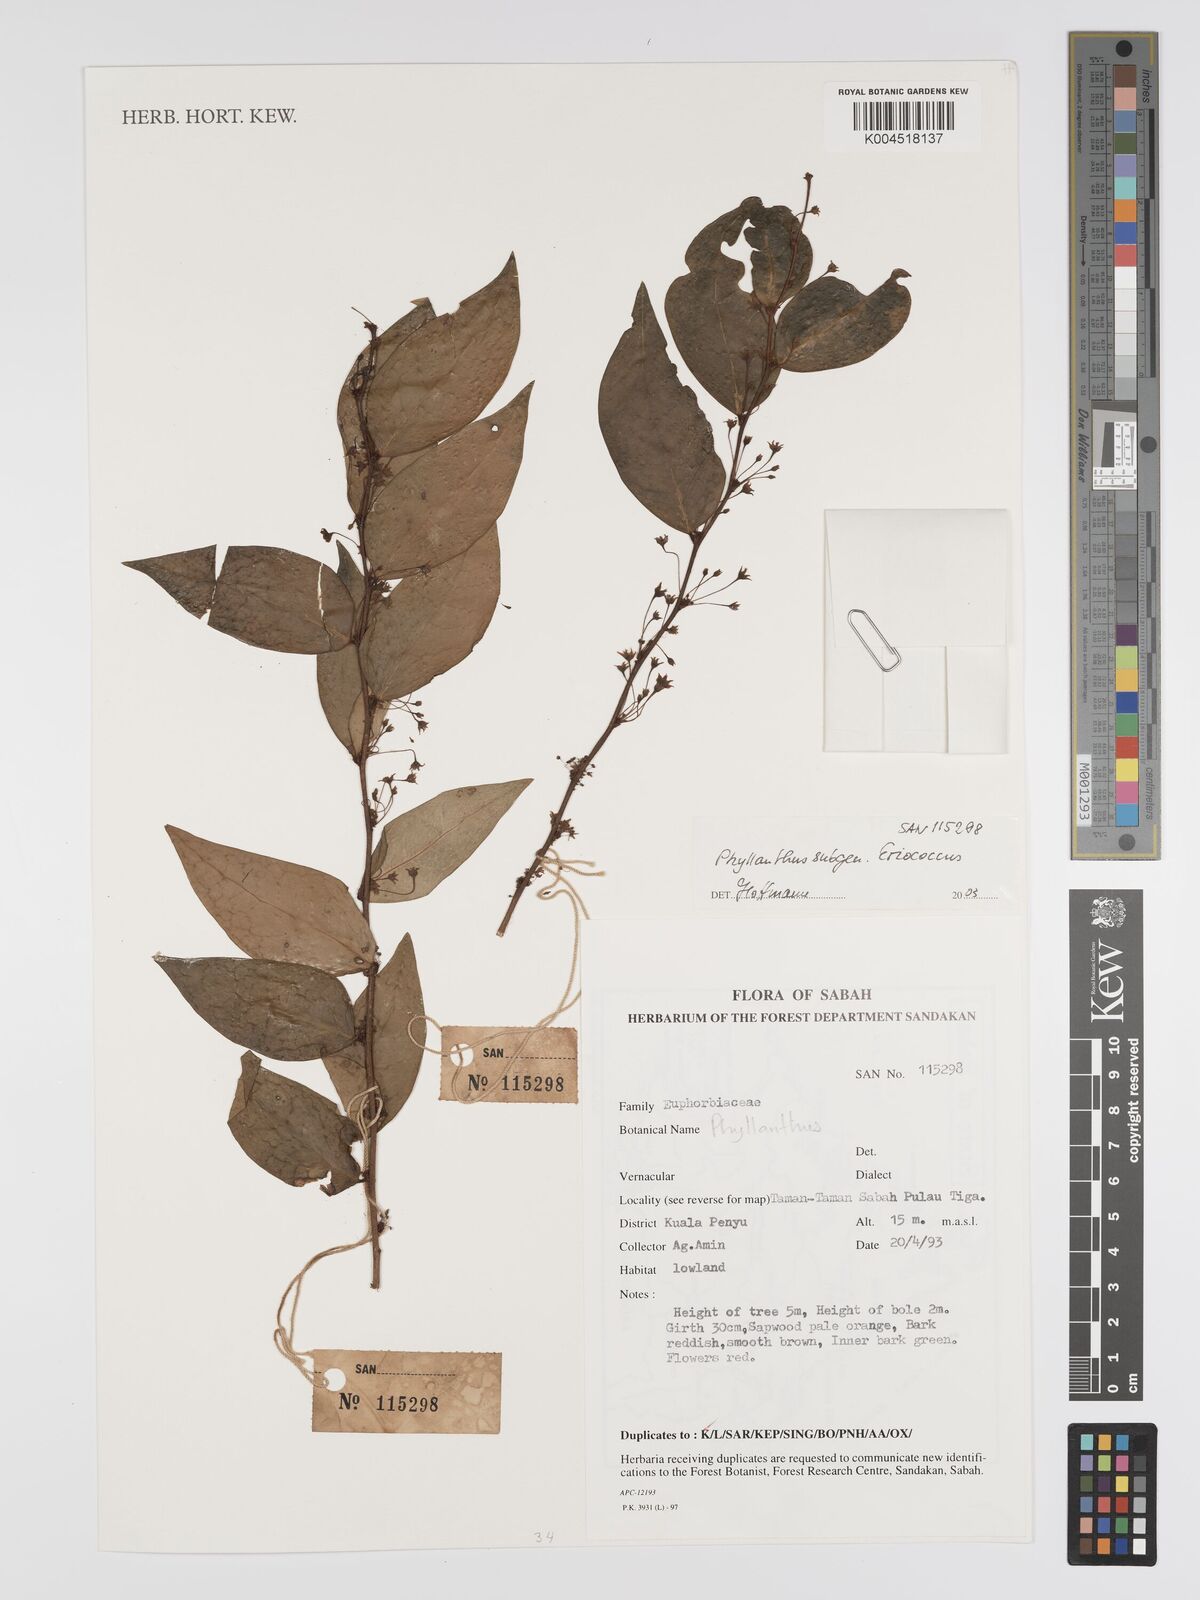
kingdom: Plantae
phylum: Tracheophyta
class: Magnoliopsida
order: Malpighiales
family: Phyllanthaceae
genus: Phyllanthus
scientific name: Phyllanthus
